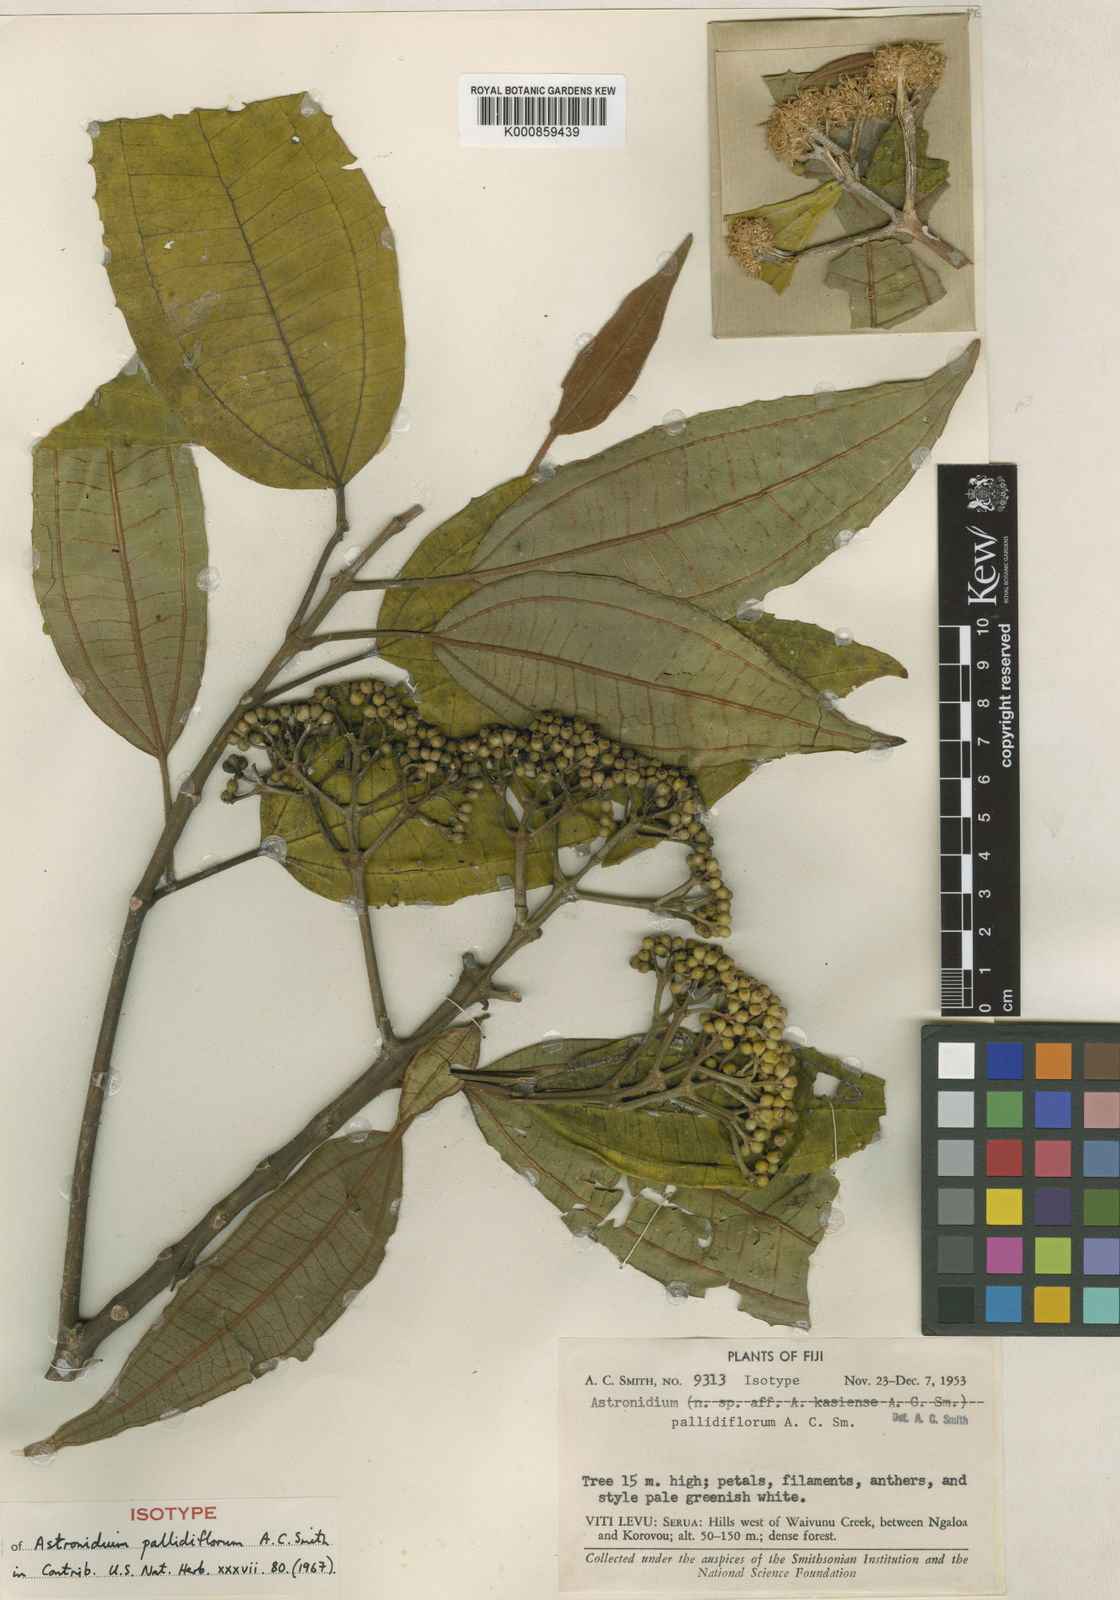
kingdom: Plantae
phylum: Tracheophyta
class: Magnoliopsida
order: Myrtales
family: Melastomataceae
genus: Astronidium
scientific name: Astronidium pallidiflorum
